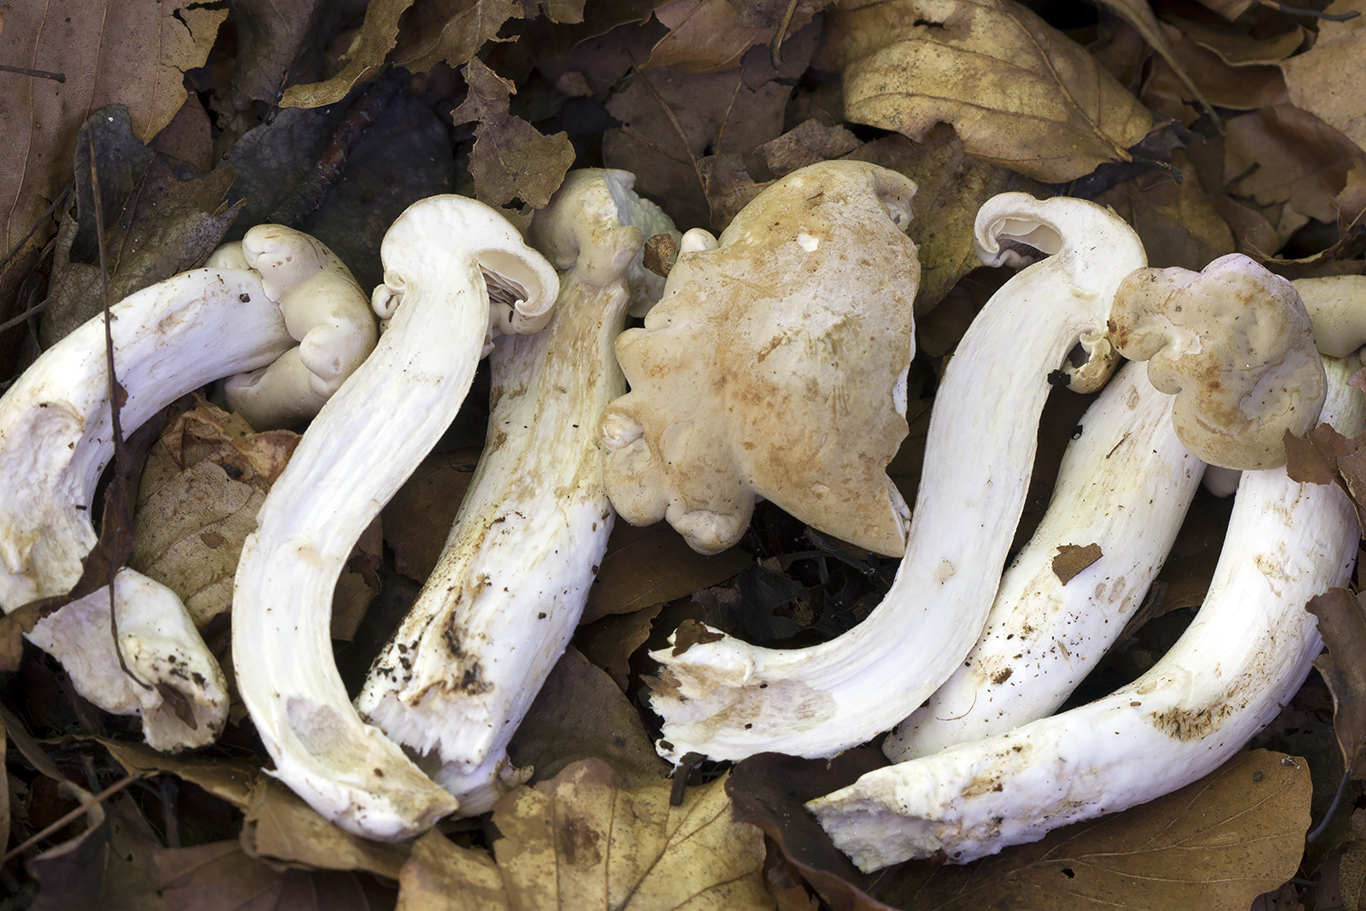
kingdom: Fungi
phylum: Basidiomycota
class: Agaricomycetes
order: Agaricales
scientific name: Agaricales
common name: champignonordenen
